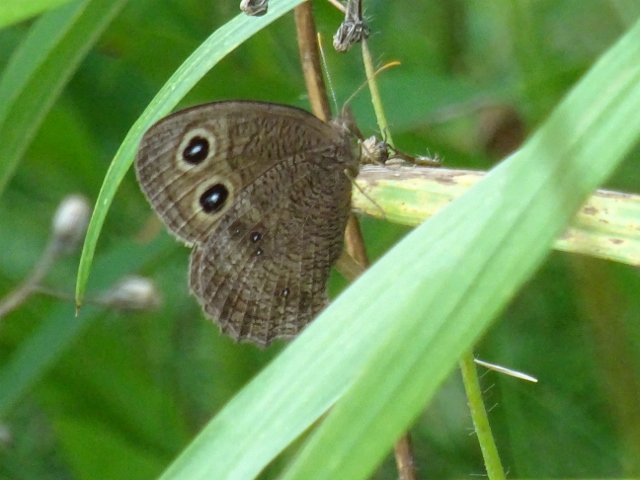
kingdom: Animalia
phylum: Arthropoda
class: Insecta
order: Lepidoptera
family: Nymphalidae
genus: Cercyonis
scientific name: Cercyonis pegala
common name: Common Wood-Nymph
